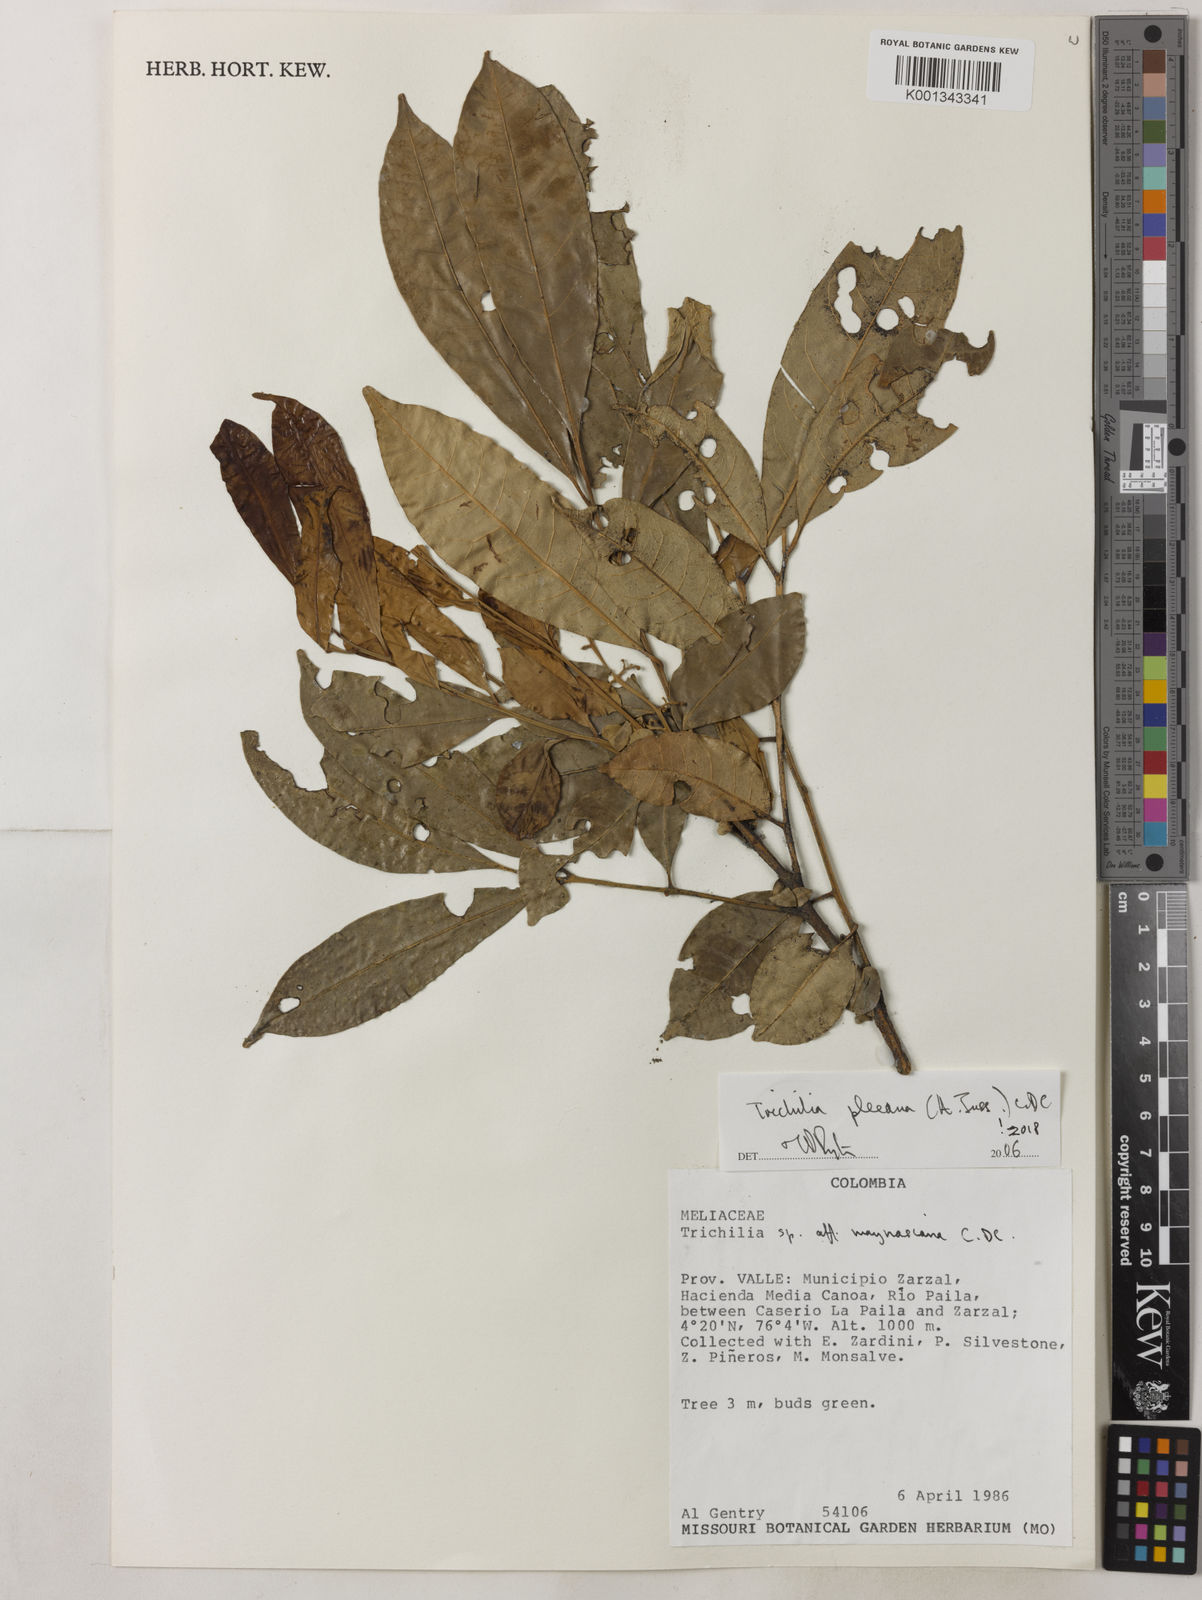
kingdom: Plantae
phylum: Tracheophyta
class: Magnoliopsida
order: Sapindales
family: Meliaceae
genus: Trichilia
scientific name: Trichilia pleeana
